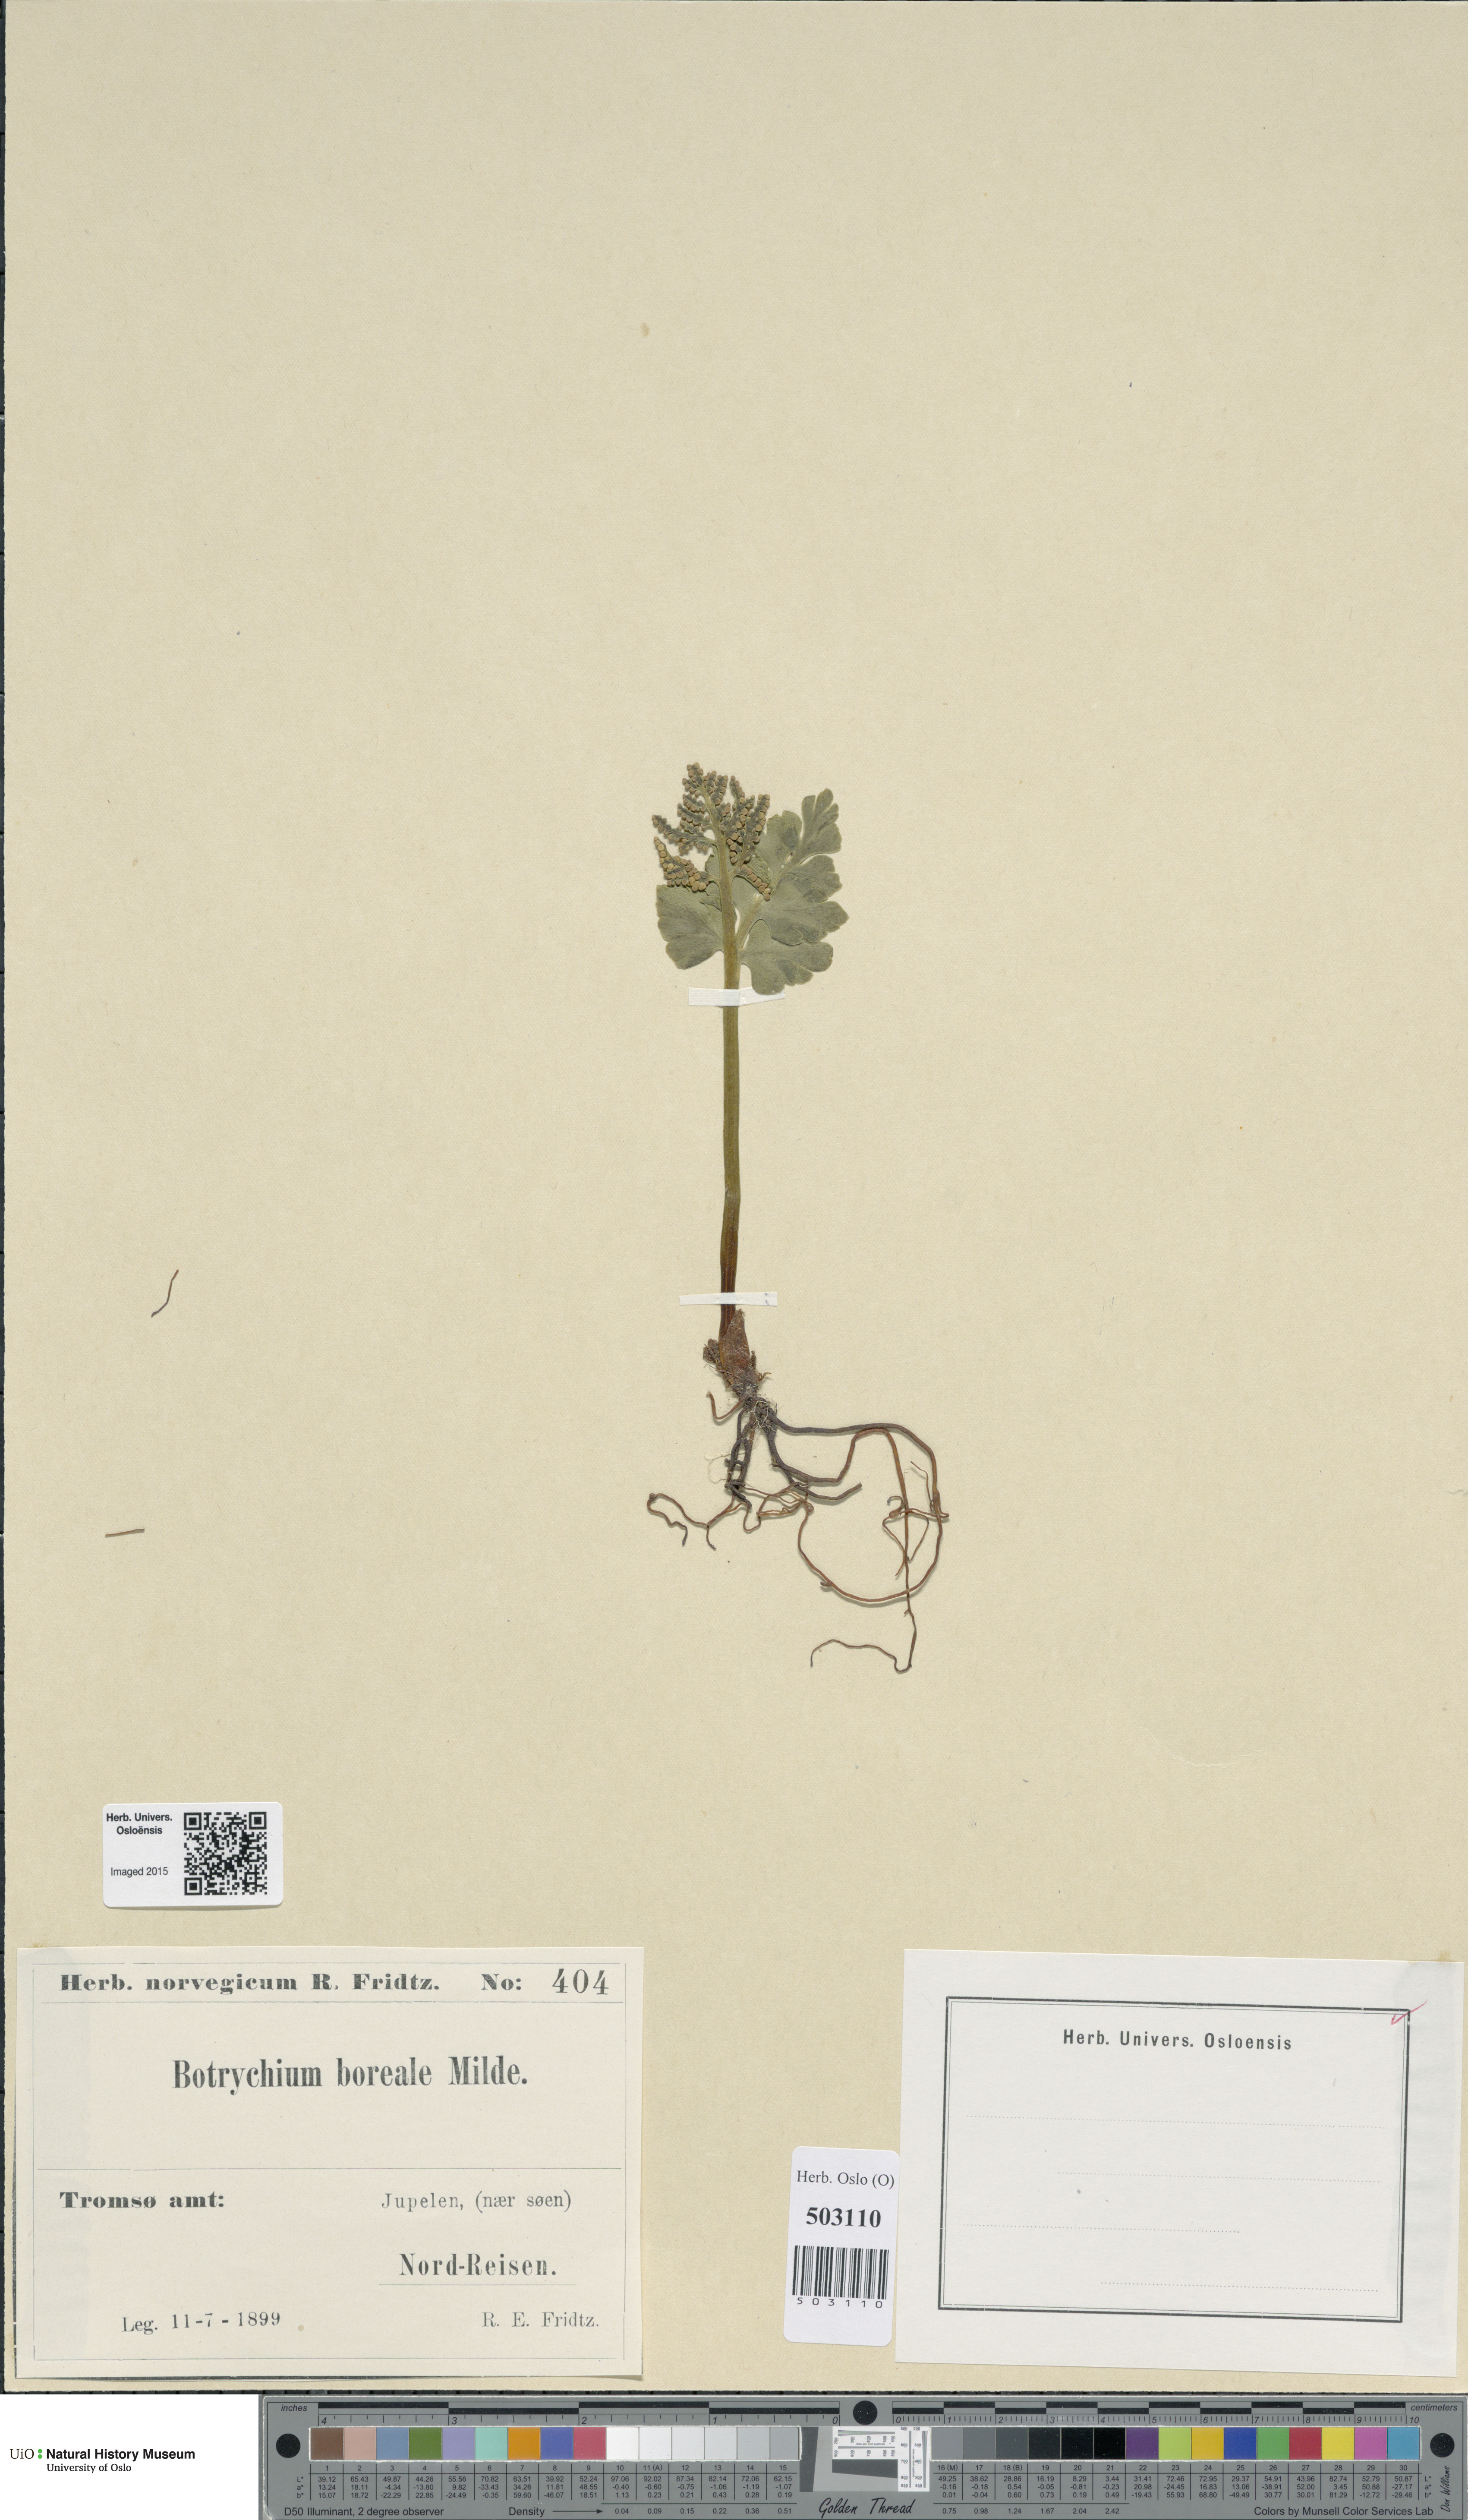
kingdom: Plantae
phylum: Tracheophyta
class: Polypodiopsida
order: Ophioglossales
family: Ophioglossaceae
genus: Botrychium
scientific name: Botrychium boreale
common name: Boreal moonwort
